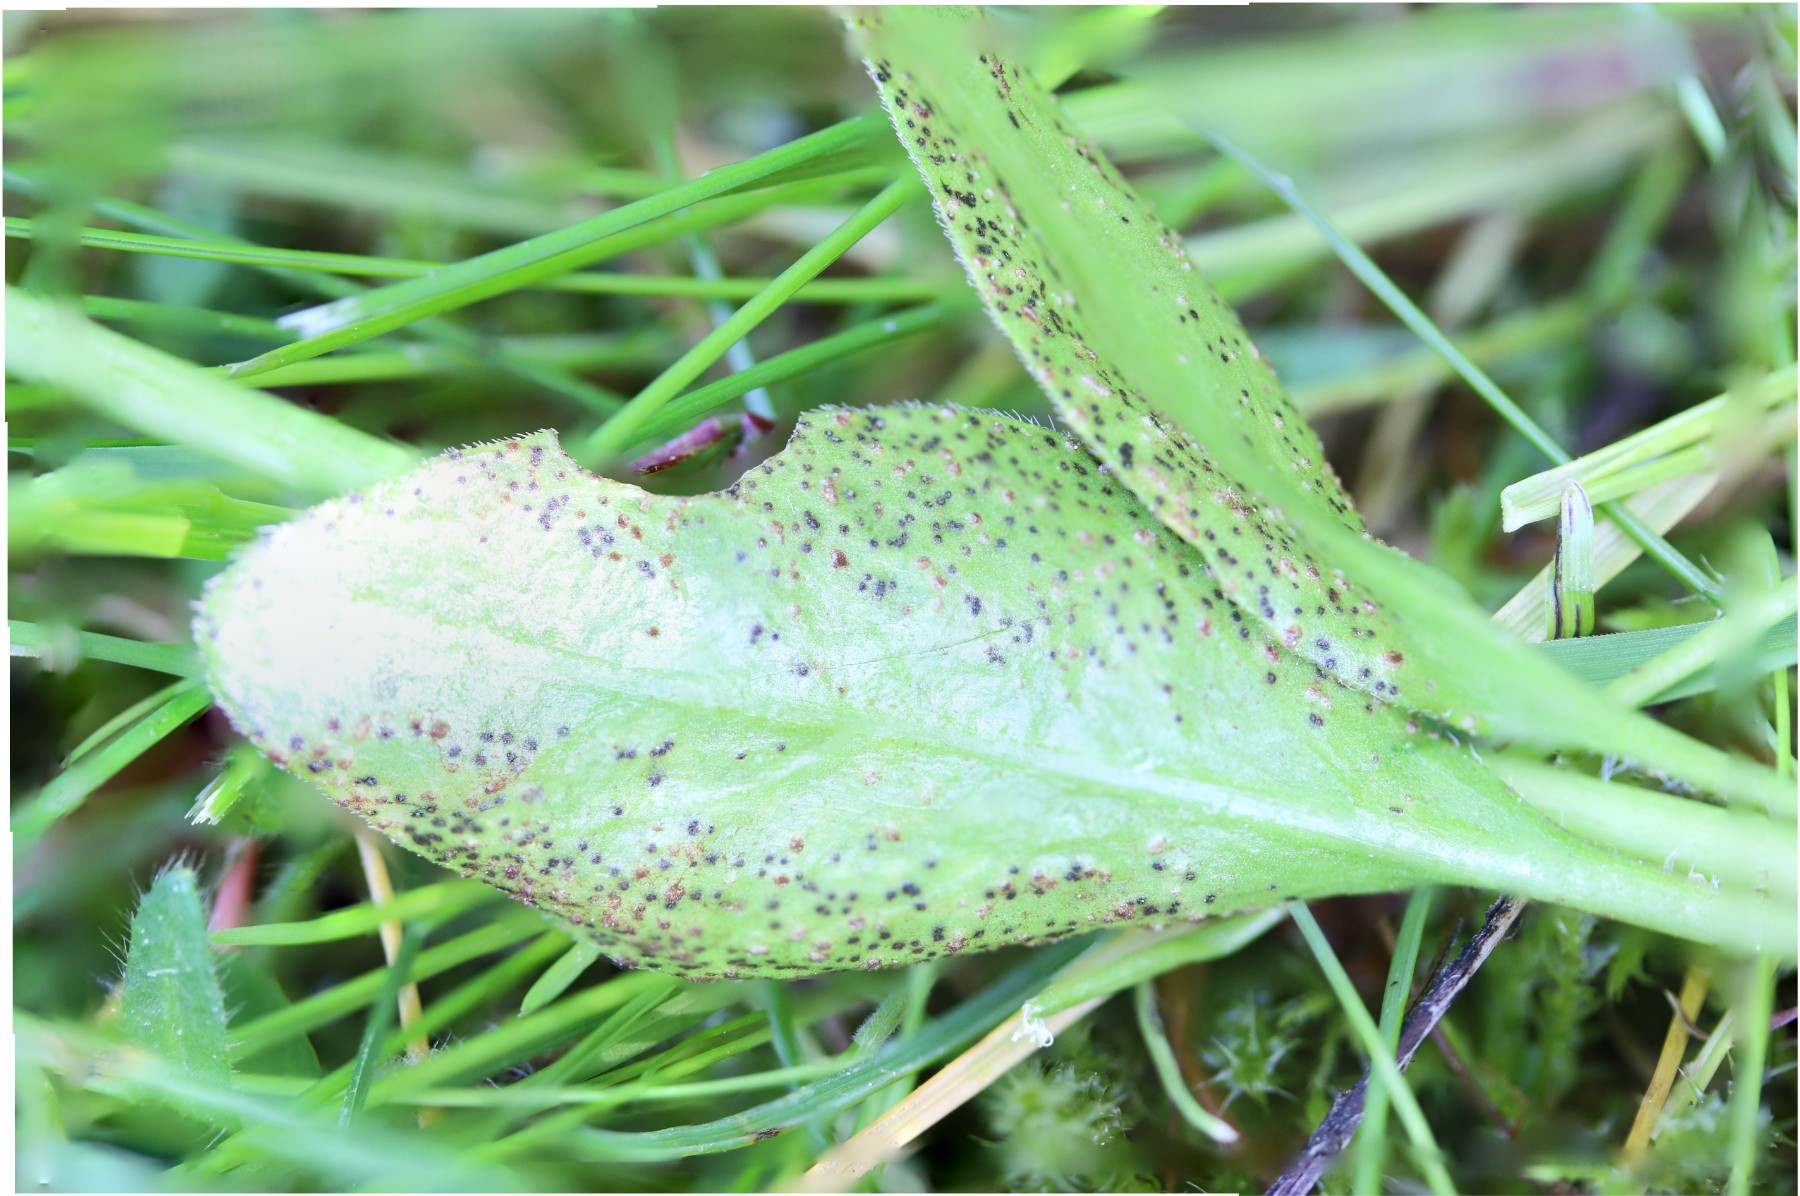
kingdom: Fungi
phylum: Basidiomycota
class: Pucciniomycetes
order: Pucciniales
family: Pucciniaceae
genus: Puccinia
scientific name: Puccinia vincae
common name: Periwinkle rust
